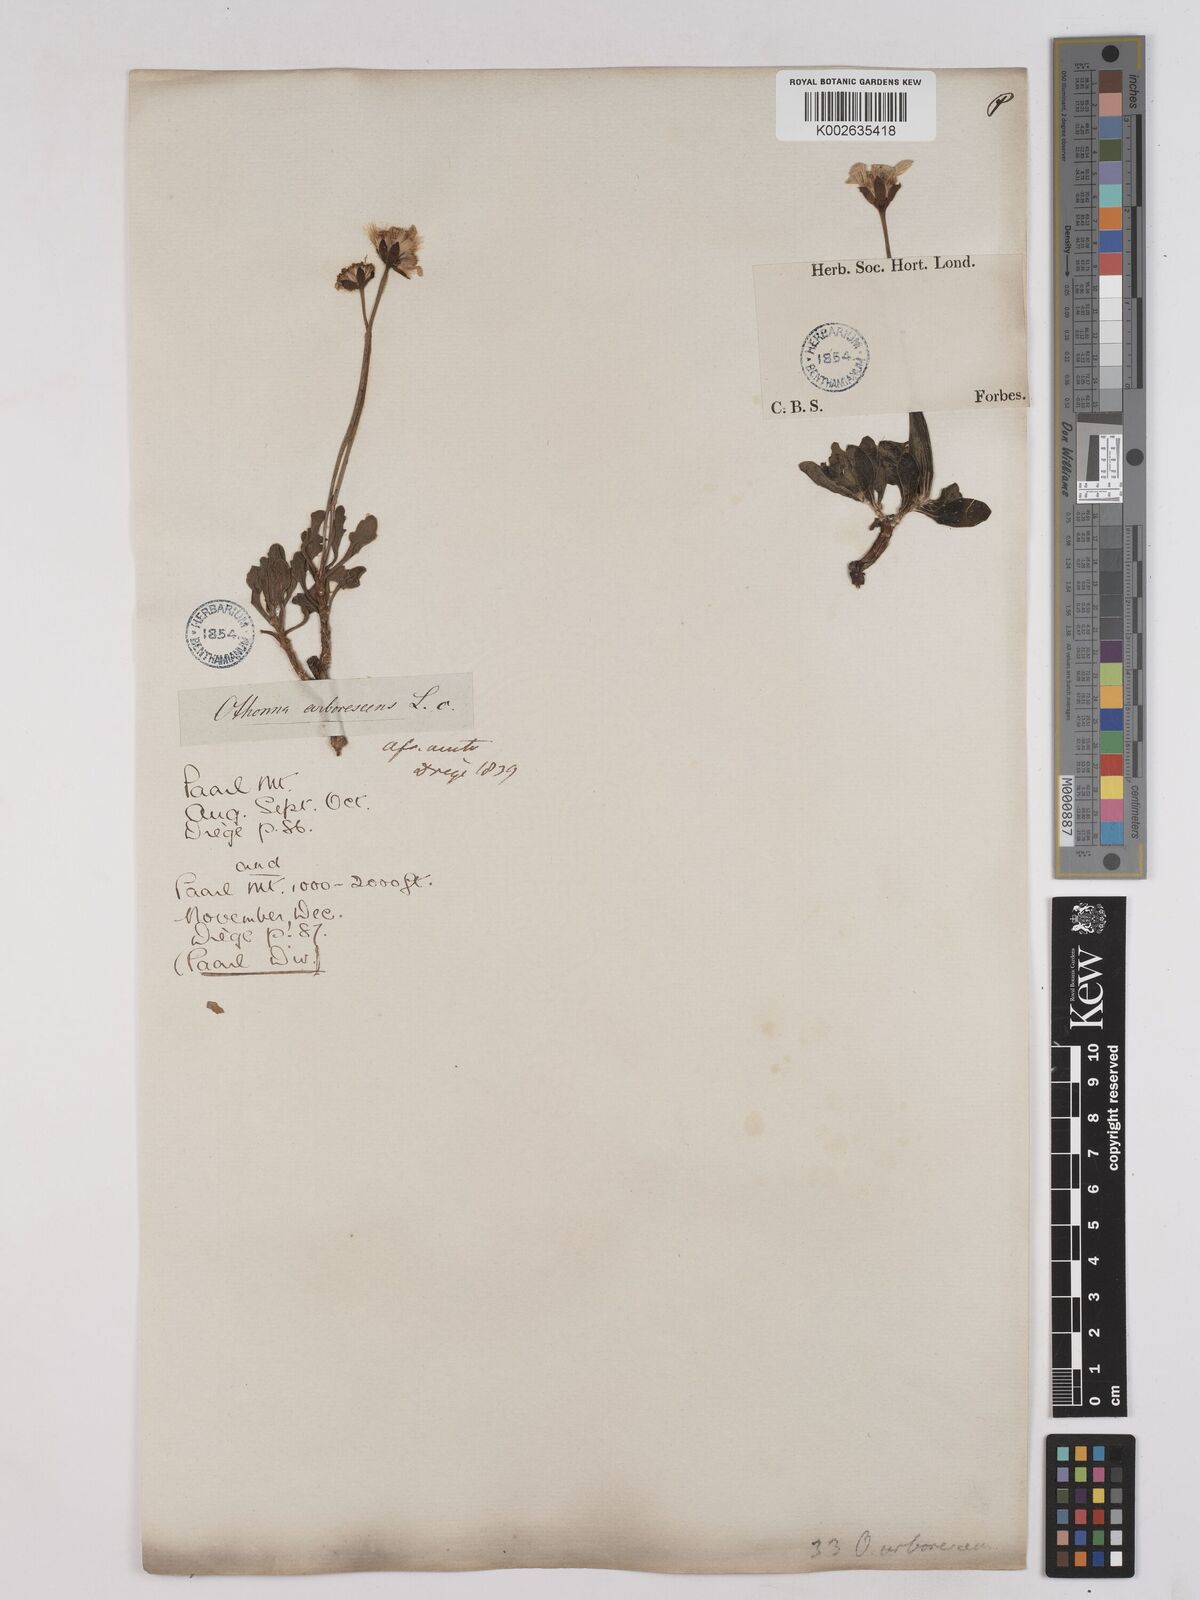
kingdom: Plantae
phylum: Tracheophyta
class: Magnoliopsida
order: Asterales
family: Asteraceae
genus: Othonna
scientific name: Othonna arborescens
